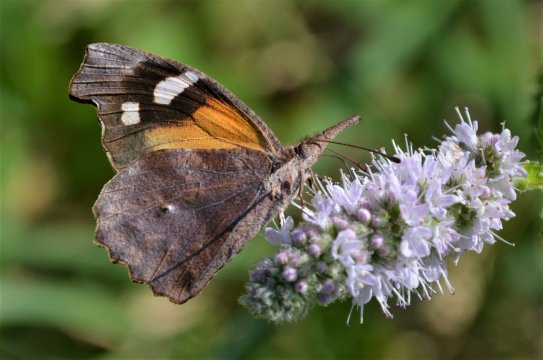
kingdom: Animalia
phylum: Arthropoda
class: Insecta
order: Lepidoptera
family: Nymphalidae
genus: Libytheana
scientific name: Libytheana carinenta
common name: American Snout
